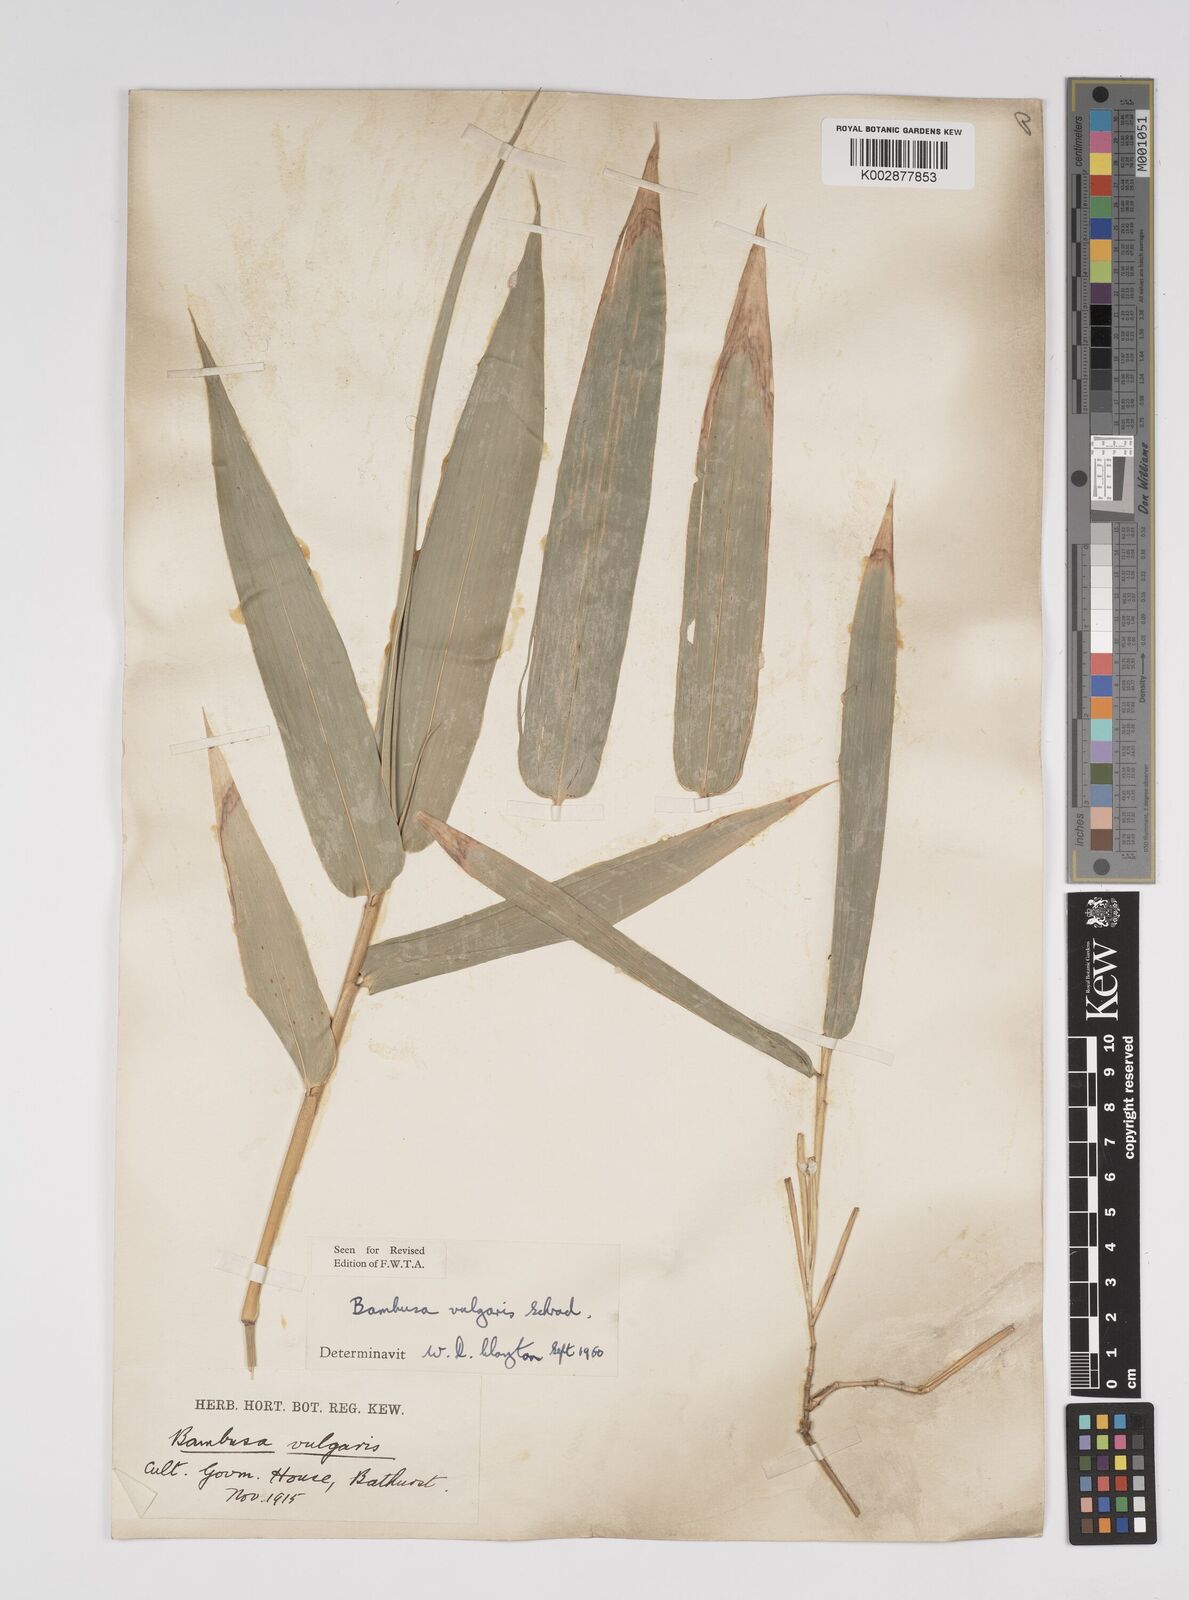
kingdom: Plantae
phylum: Tracheophyta
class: Liliopsida
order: Poales
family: Poaceae
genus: Bambusa
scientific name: Bambusa vulgaris
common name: Common bamboo
